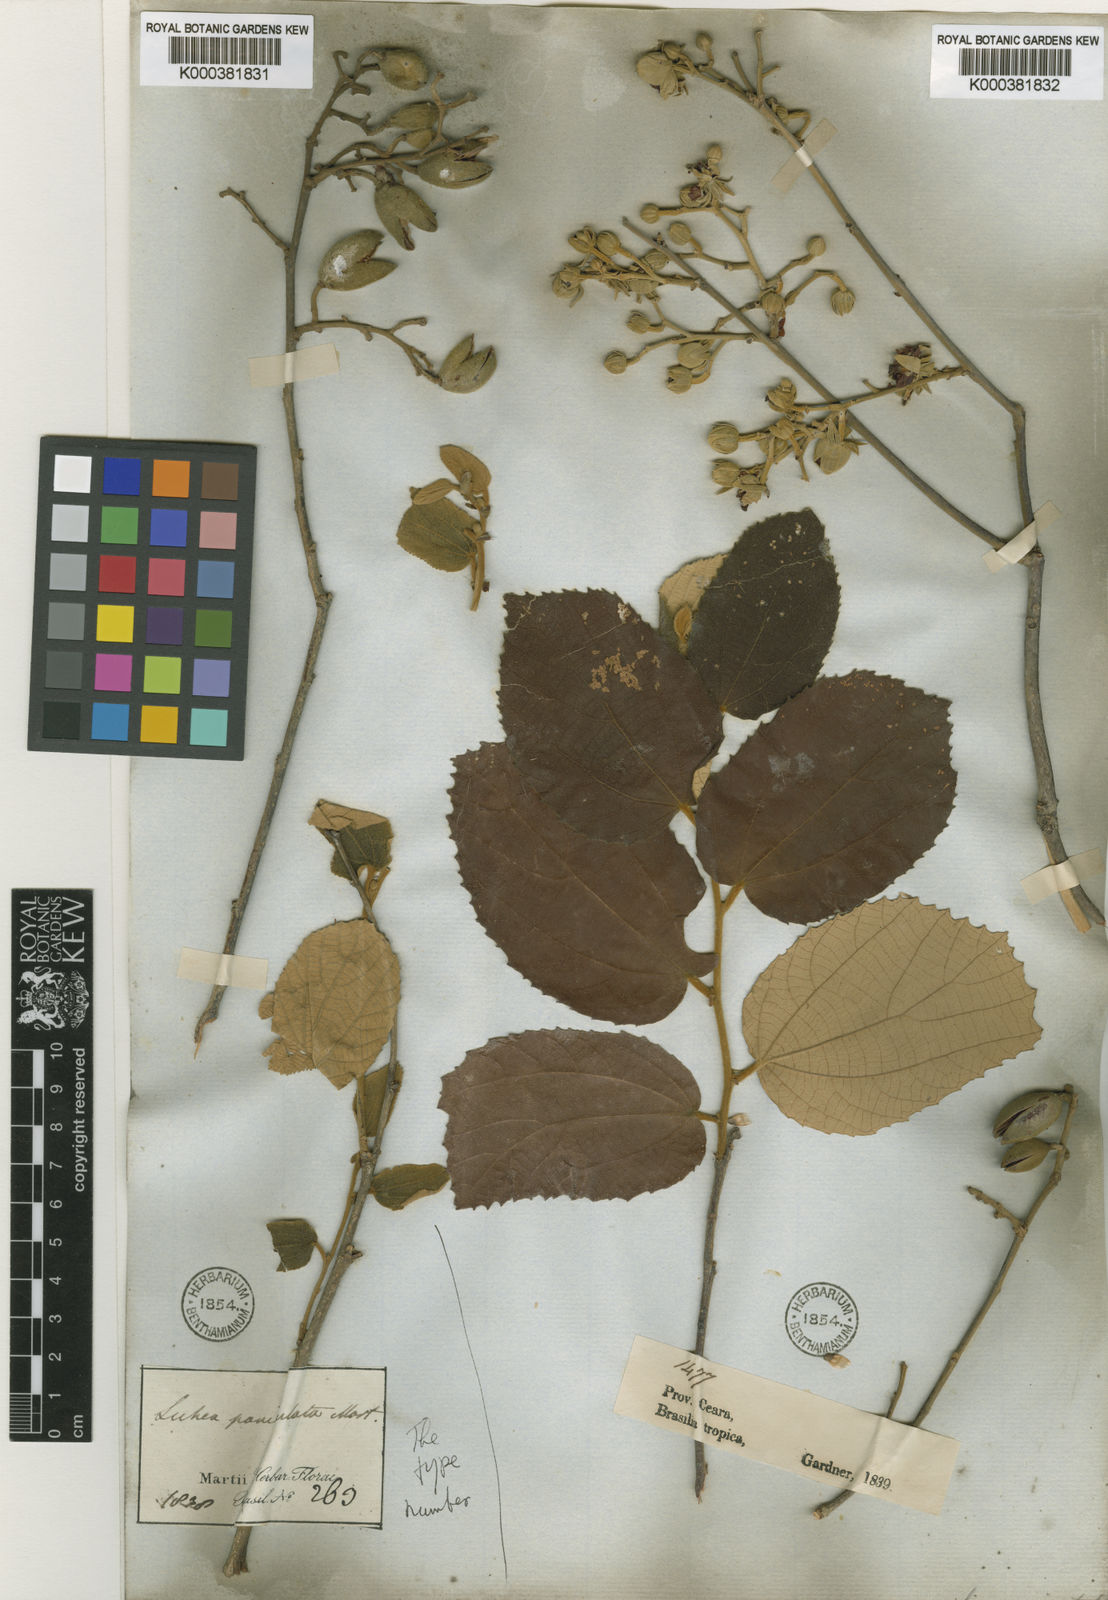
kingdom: Plantae
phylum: Tracheophyta
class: Magnoliopsida
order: Malvales
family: Malvaceae
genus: Luehea
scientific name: Luehea divaricata
